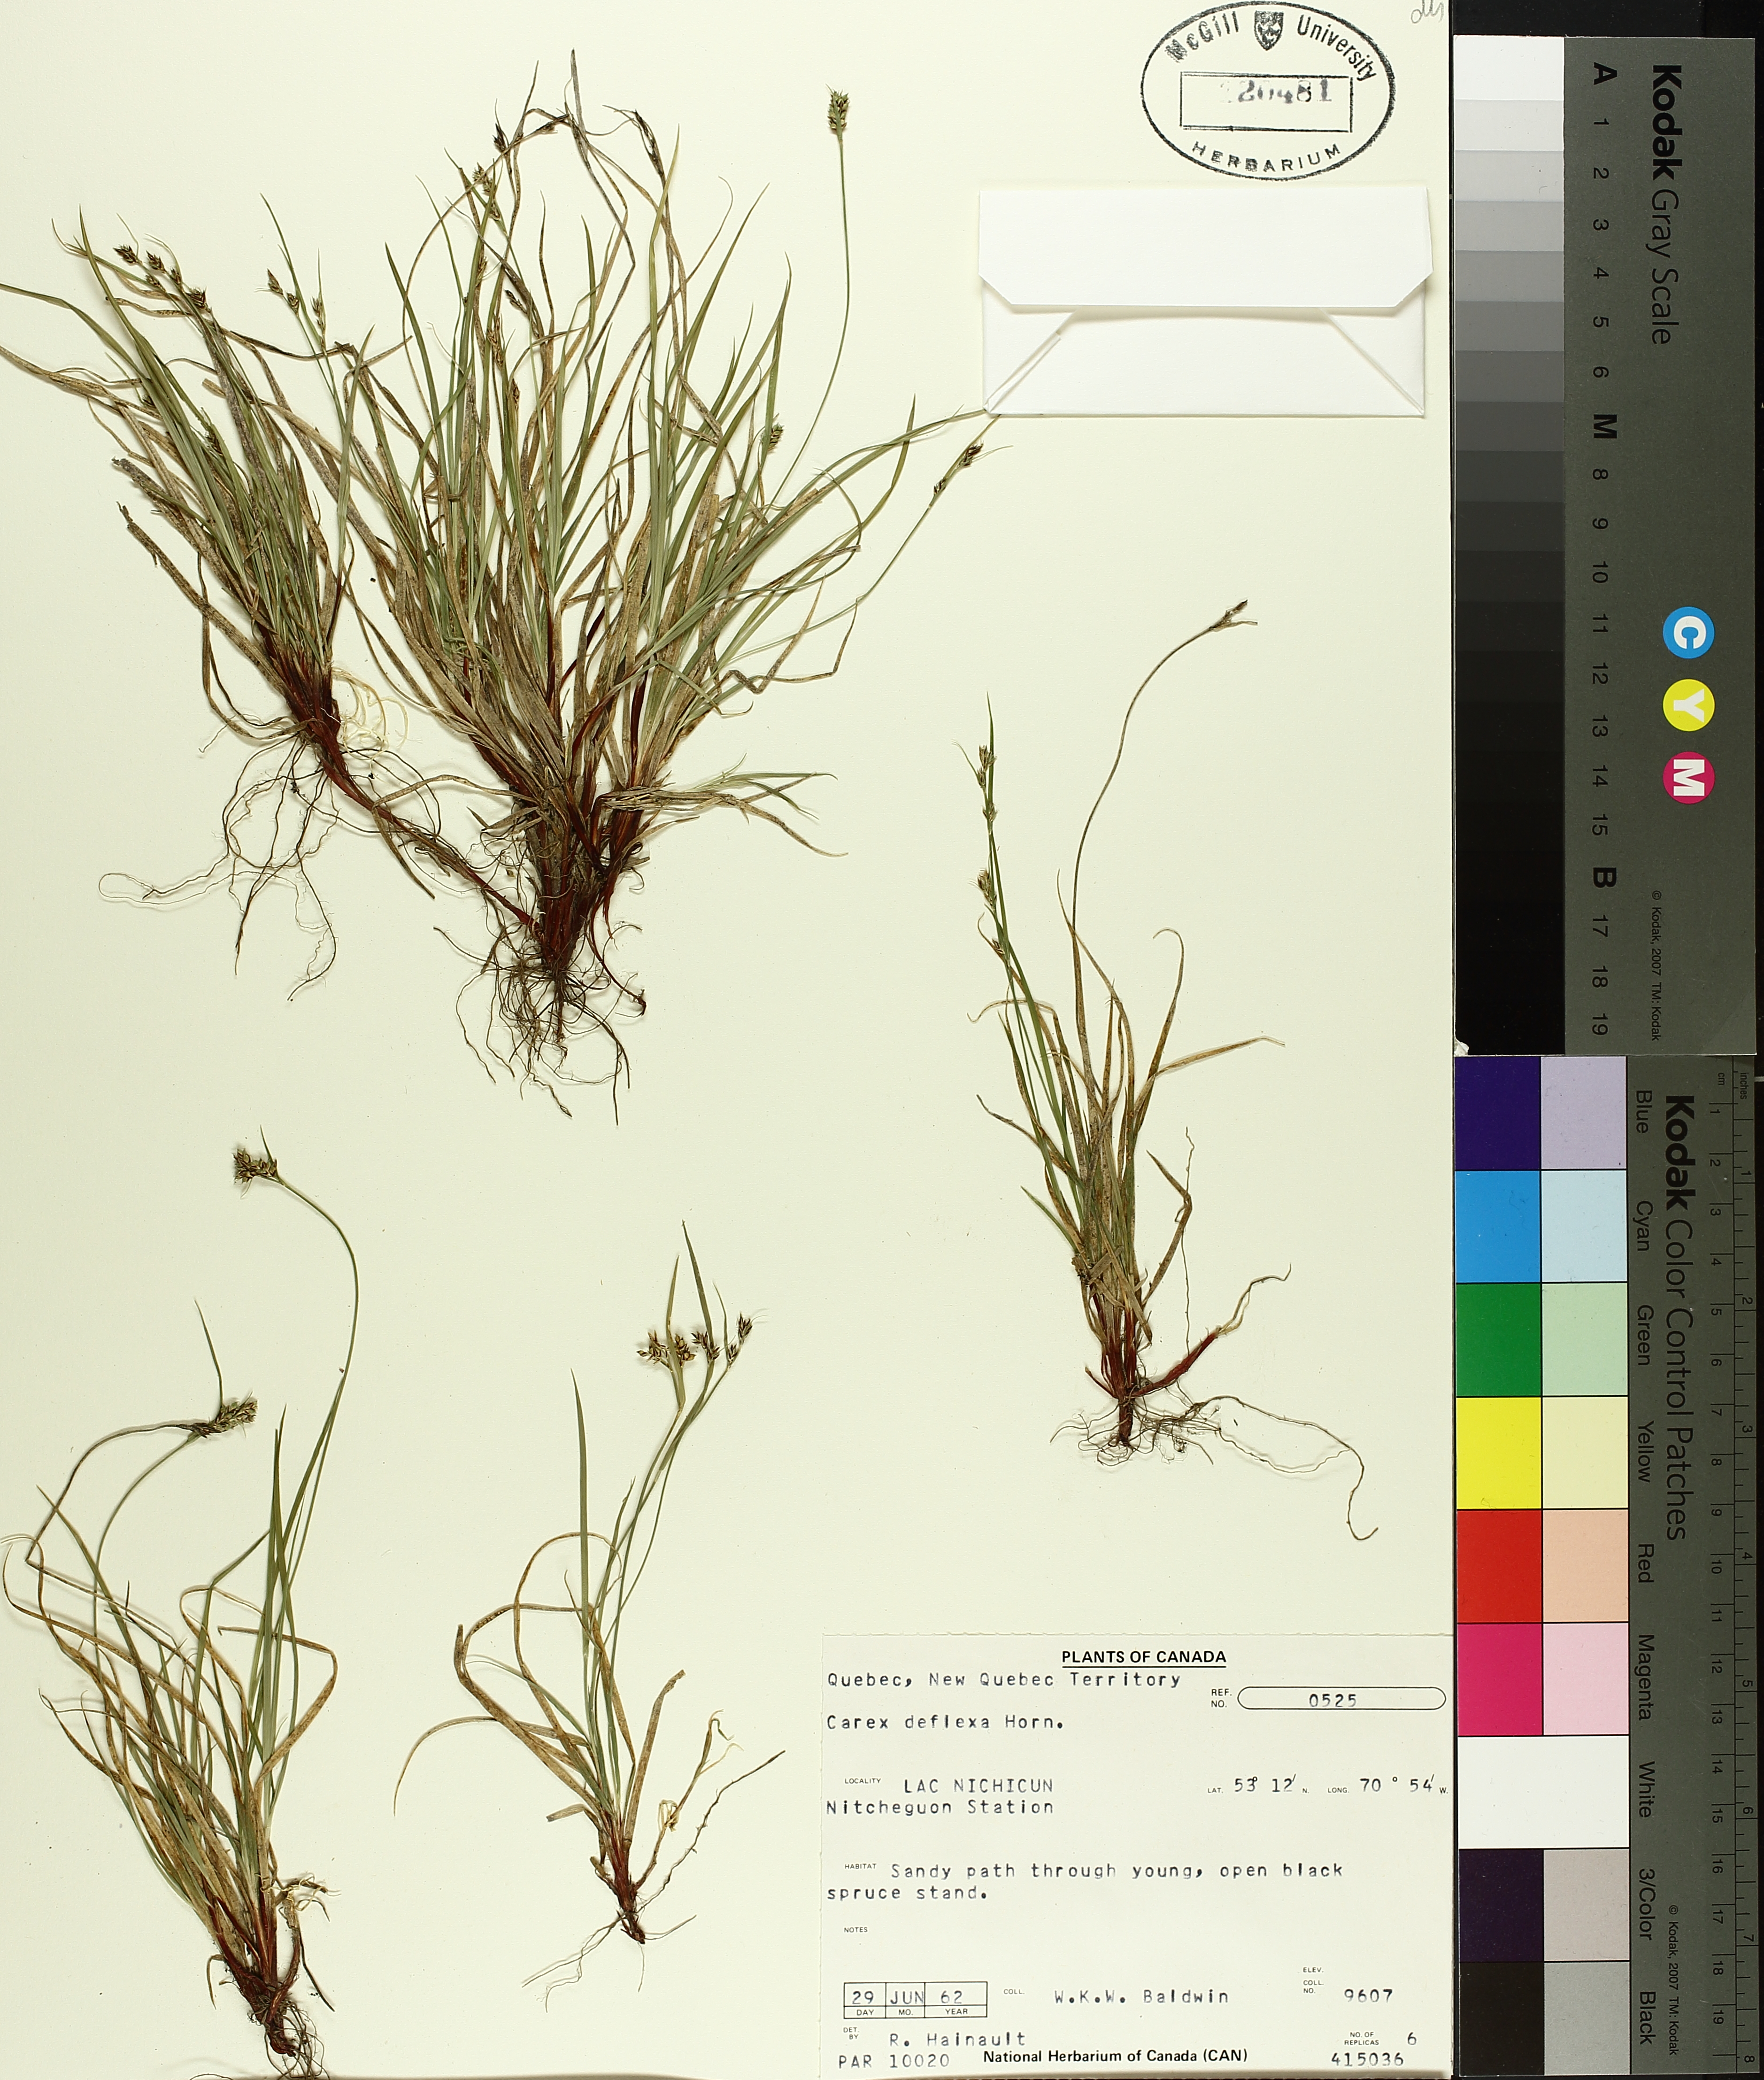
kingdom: Plantae
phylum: Tracheophyta
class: Liliopsida
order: Poales
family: Cyperaceae
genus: Carex
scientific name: Carex deflexa
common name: Bent northern sedge
